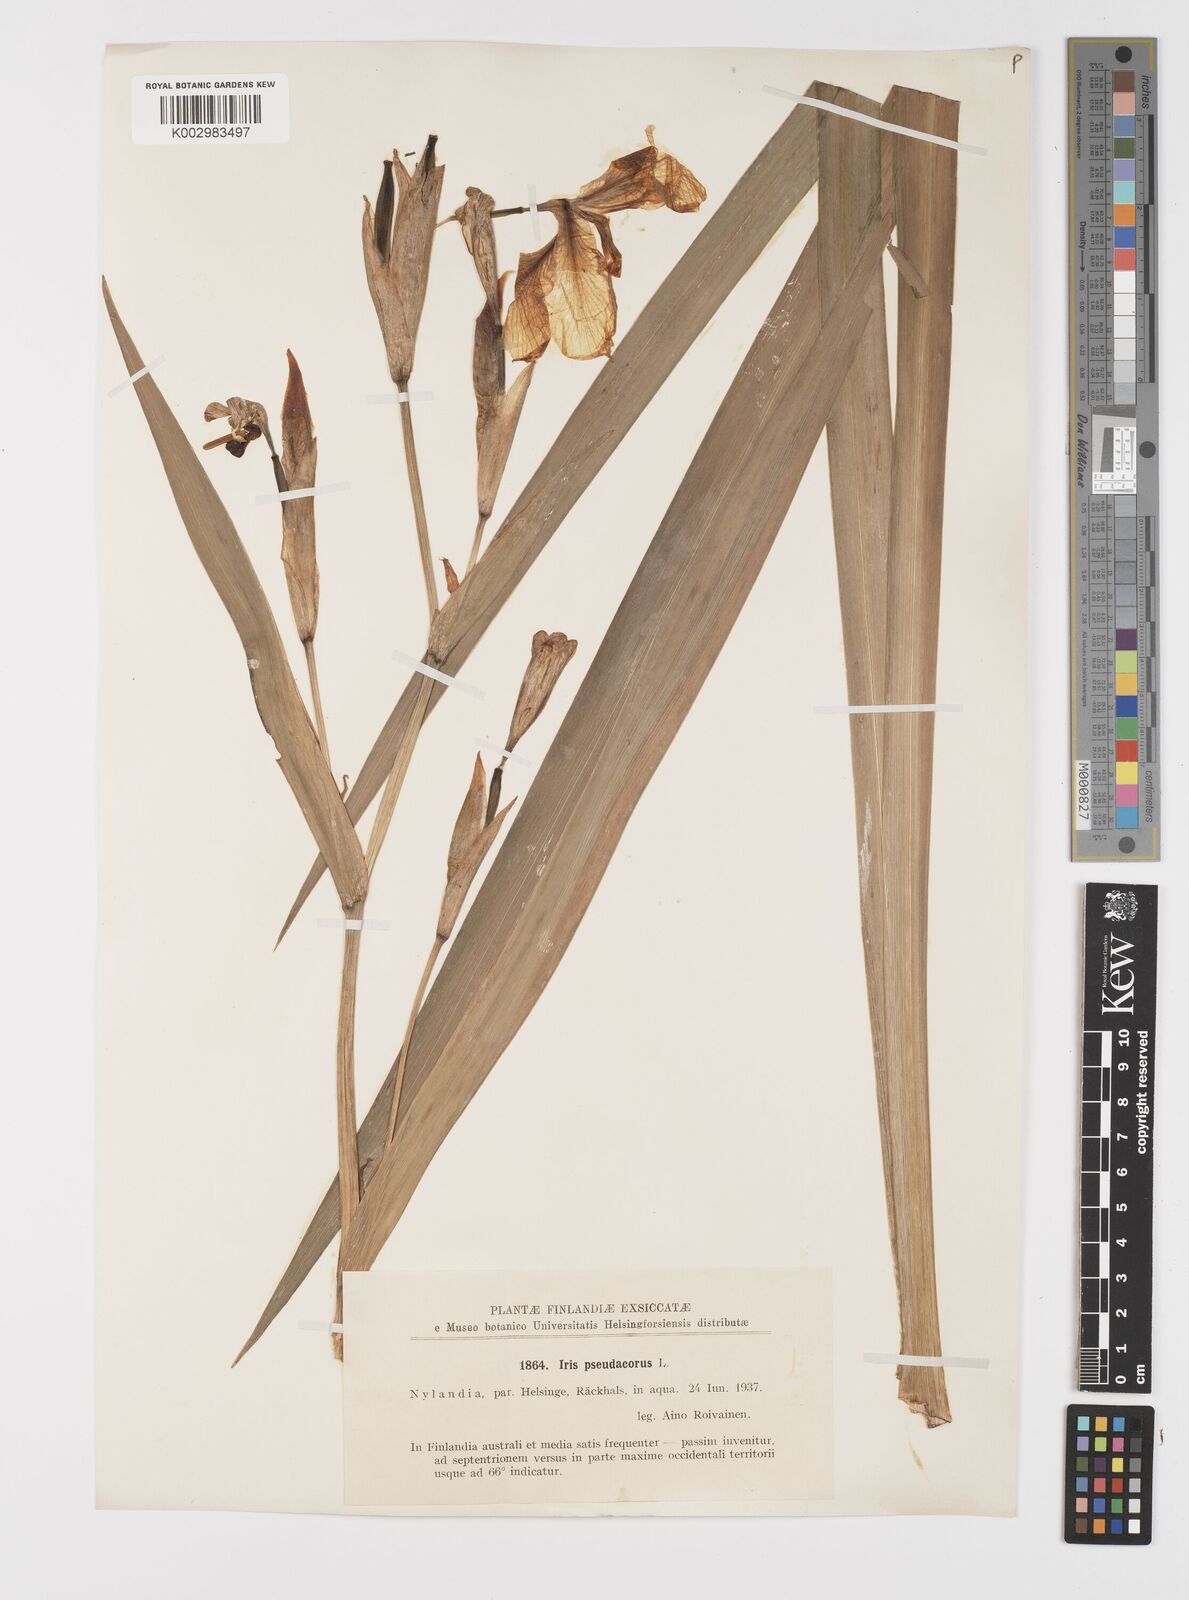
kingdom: Plantae
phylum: Tracheophyta
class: Liliopsida
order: Asparagales
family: Iridaceae
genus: Iris
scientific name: Iris pseudacorus
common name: Yellow flag
